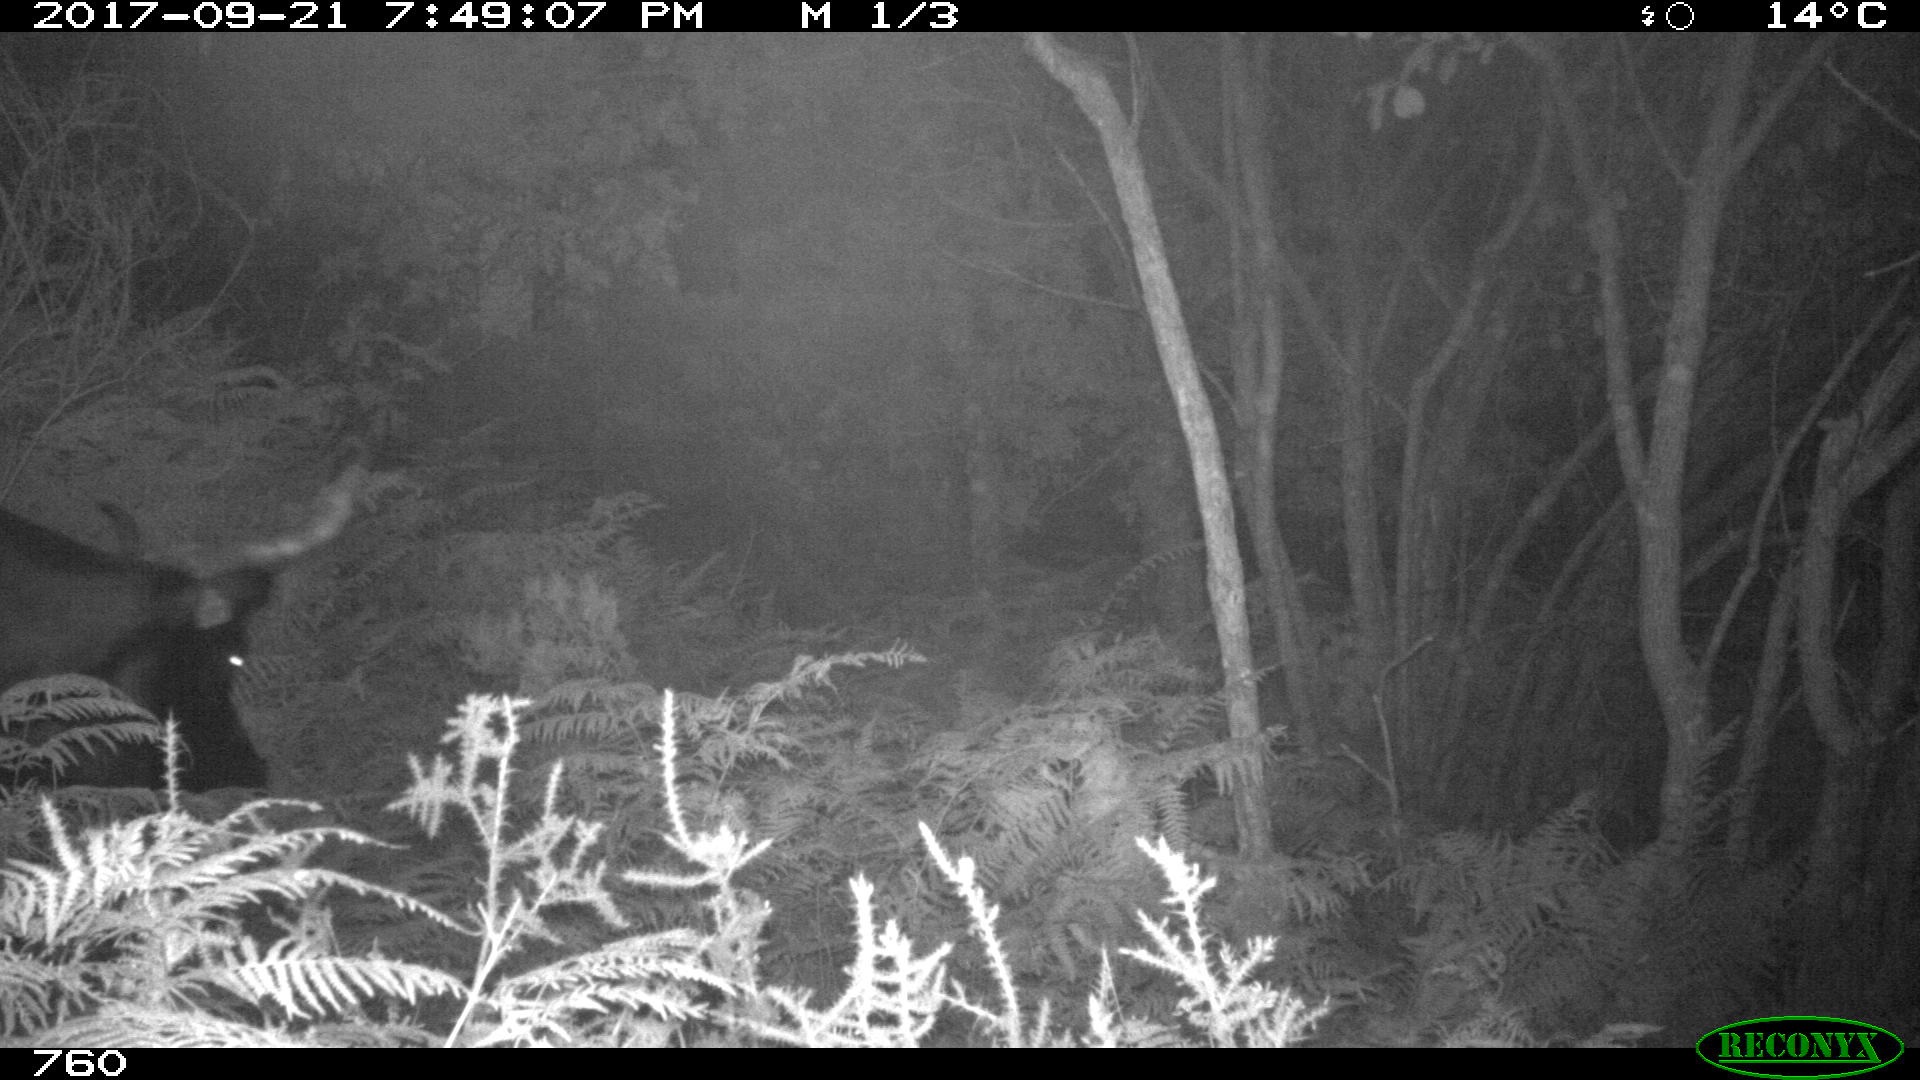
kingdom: Animalia
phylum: Chordata
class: Mammalia
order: Artiodactyla
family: Bovidae
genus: Bos
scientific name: Bos taurus
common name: Domesticated cattle
